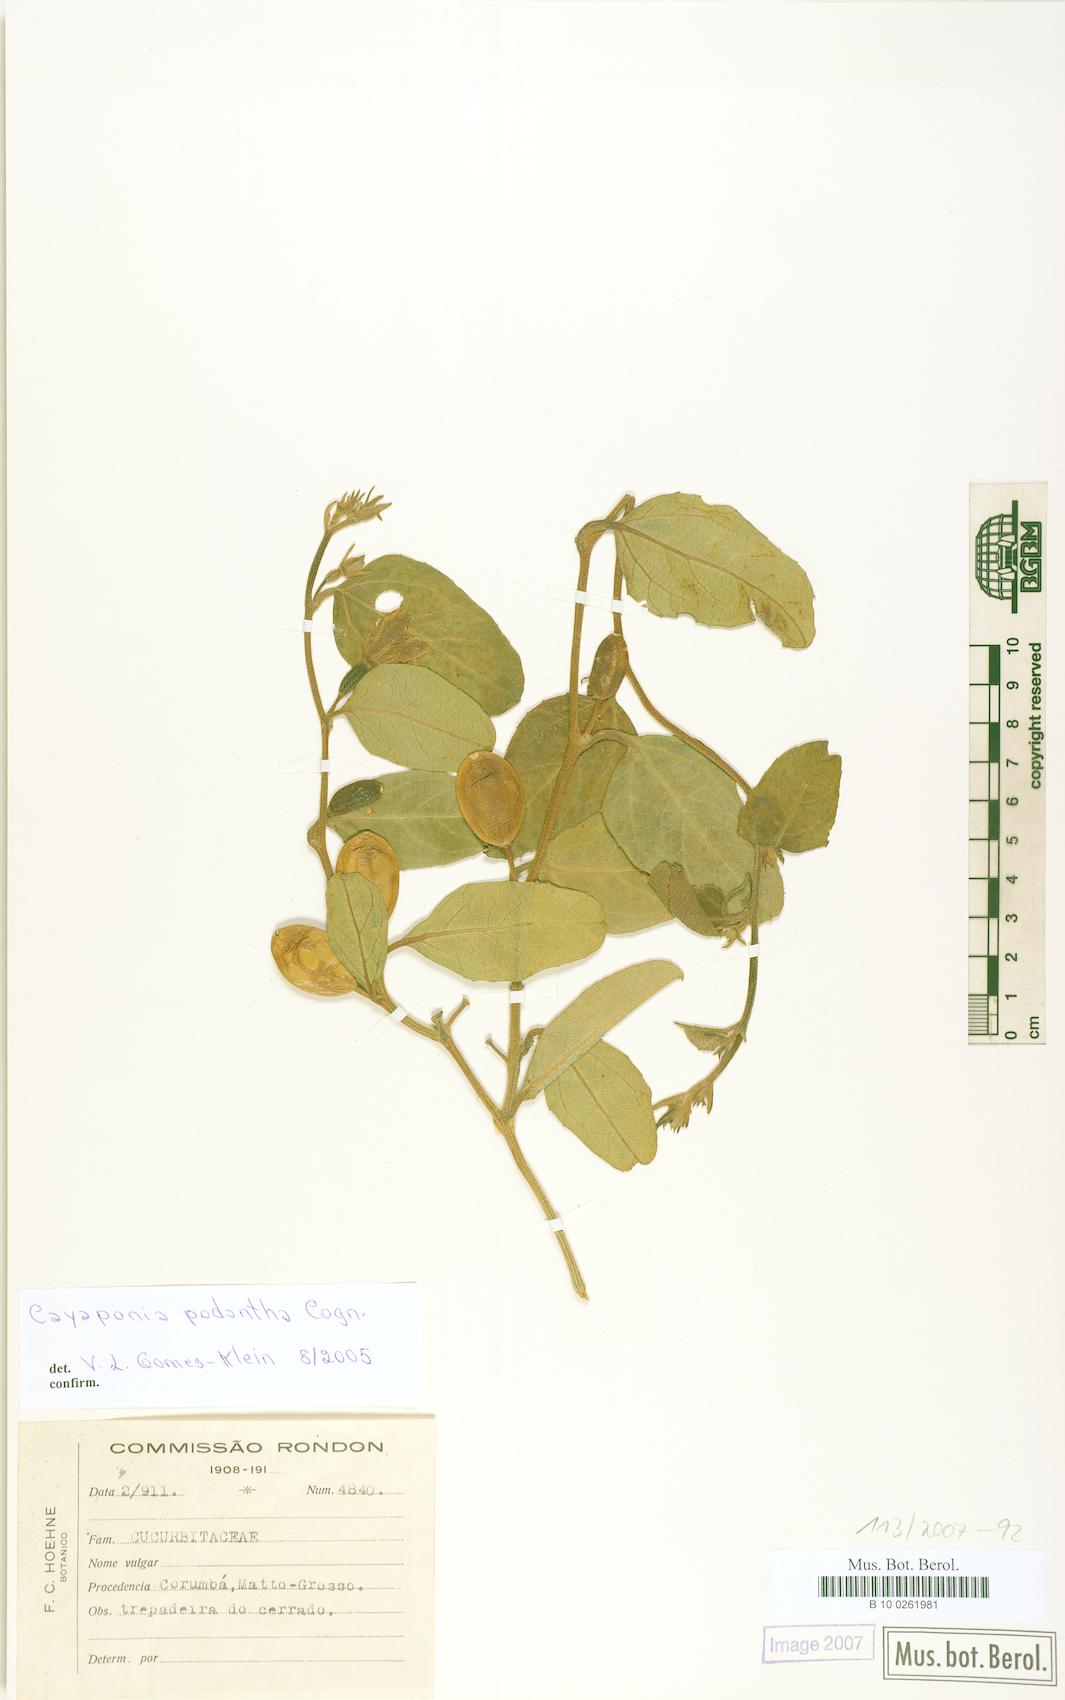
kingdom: Plantae
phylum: Tracheophyta
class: Magnoliopsida
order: Cucurbitales
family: Cucurbitaceae
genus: Cayaponia
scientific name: Cayaponia podantha
